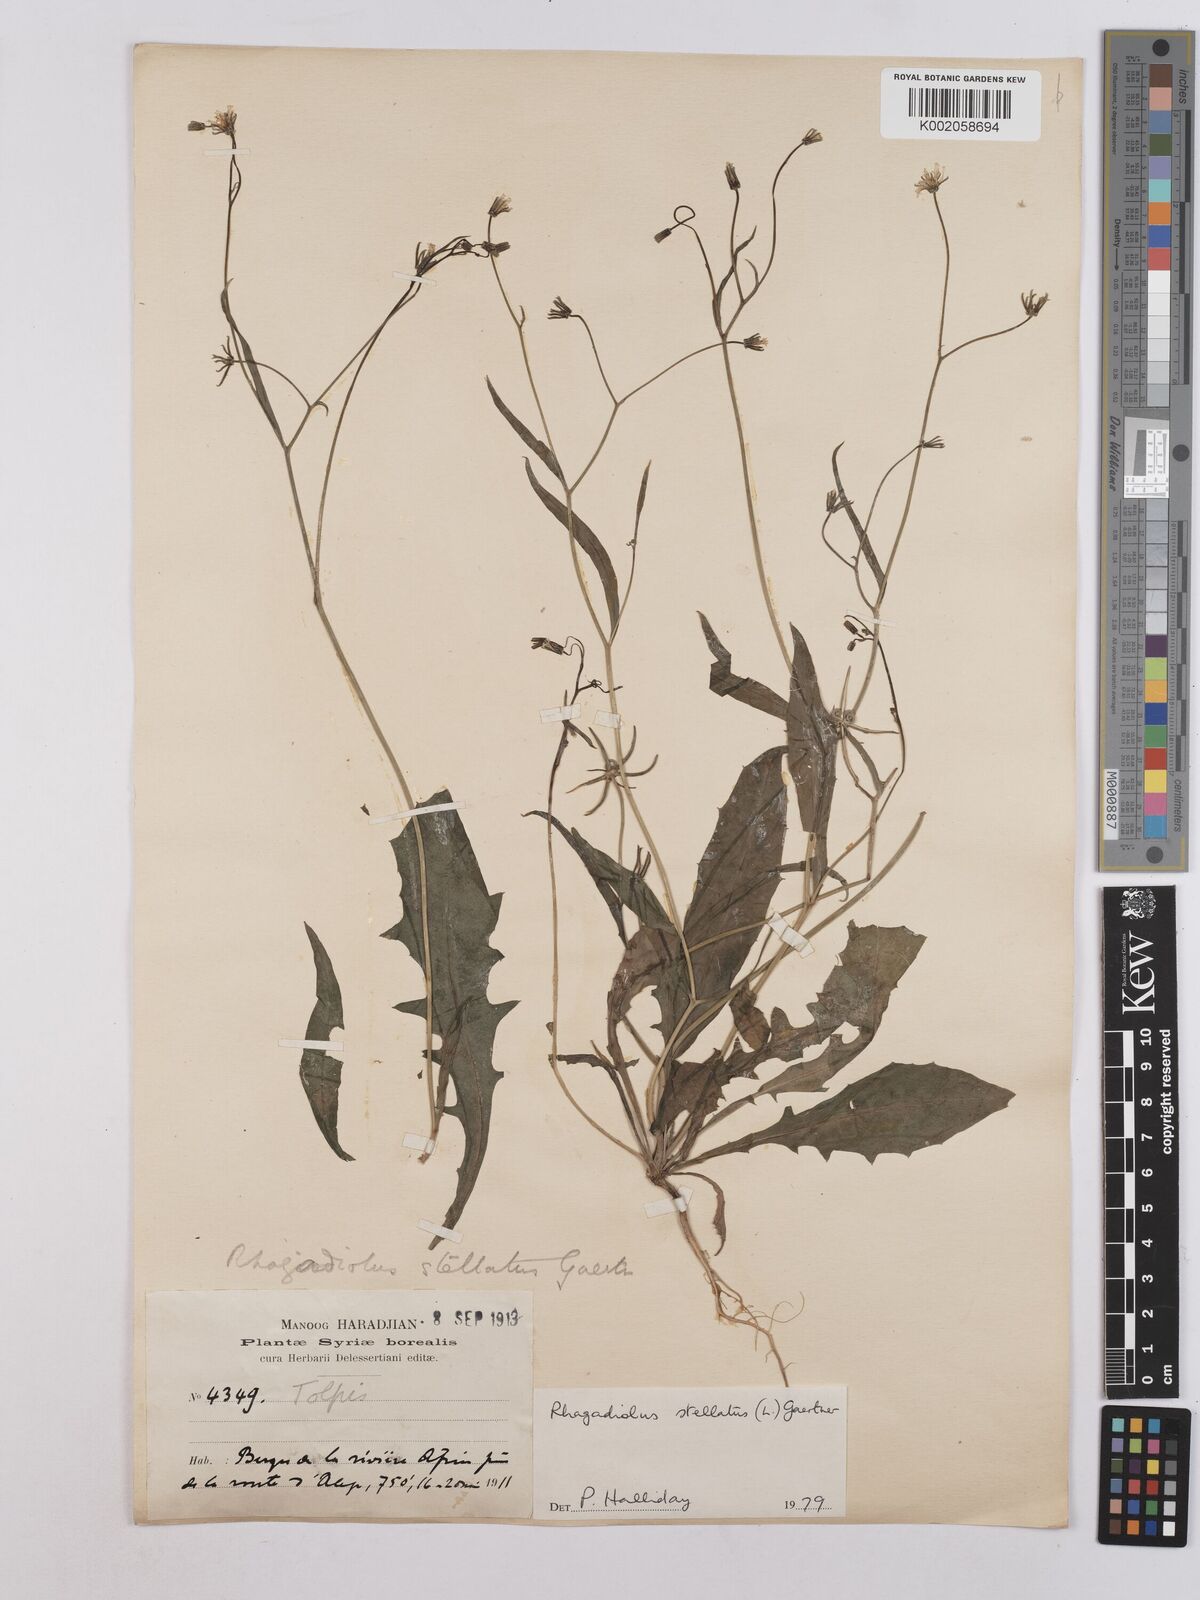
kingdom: Plantae
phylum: Tracheophyta
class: Magnoliopsida
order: Asterales
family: Asteraceae
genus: Rhagadiolus
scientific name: Rhagadiolus stellatus
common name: Star hawkbit
